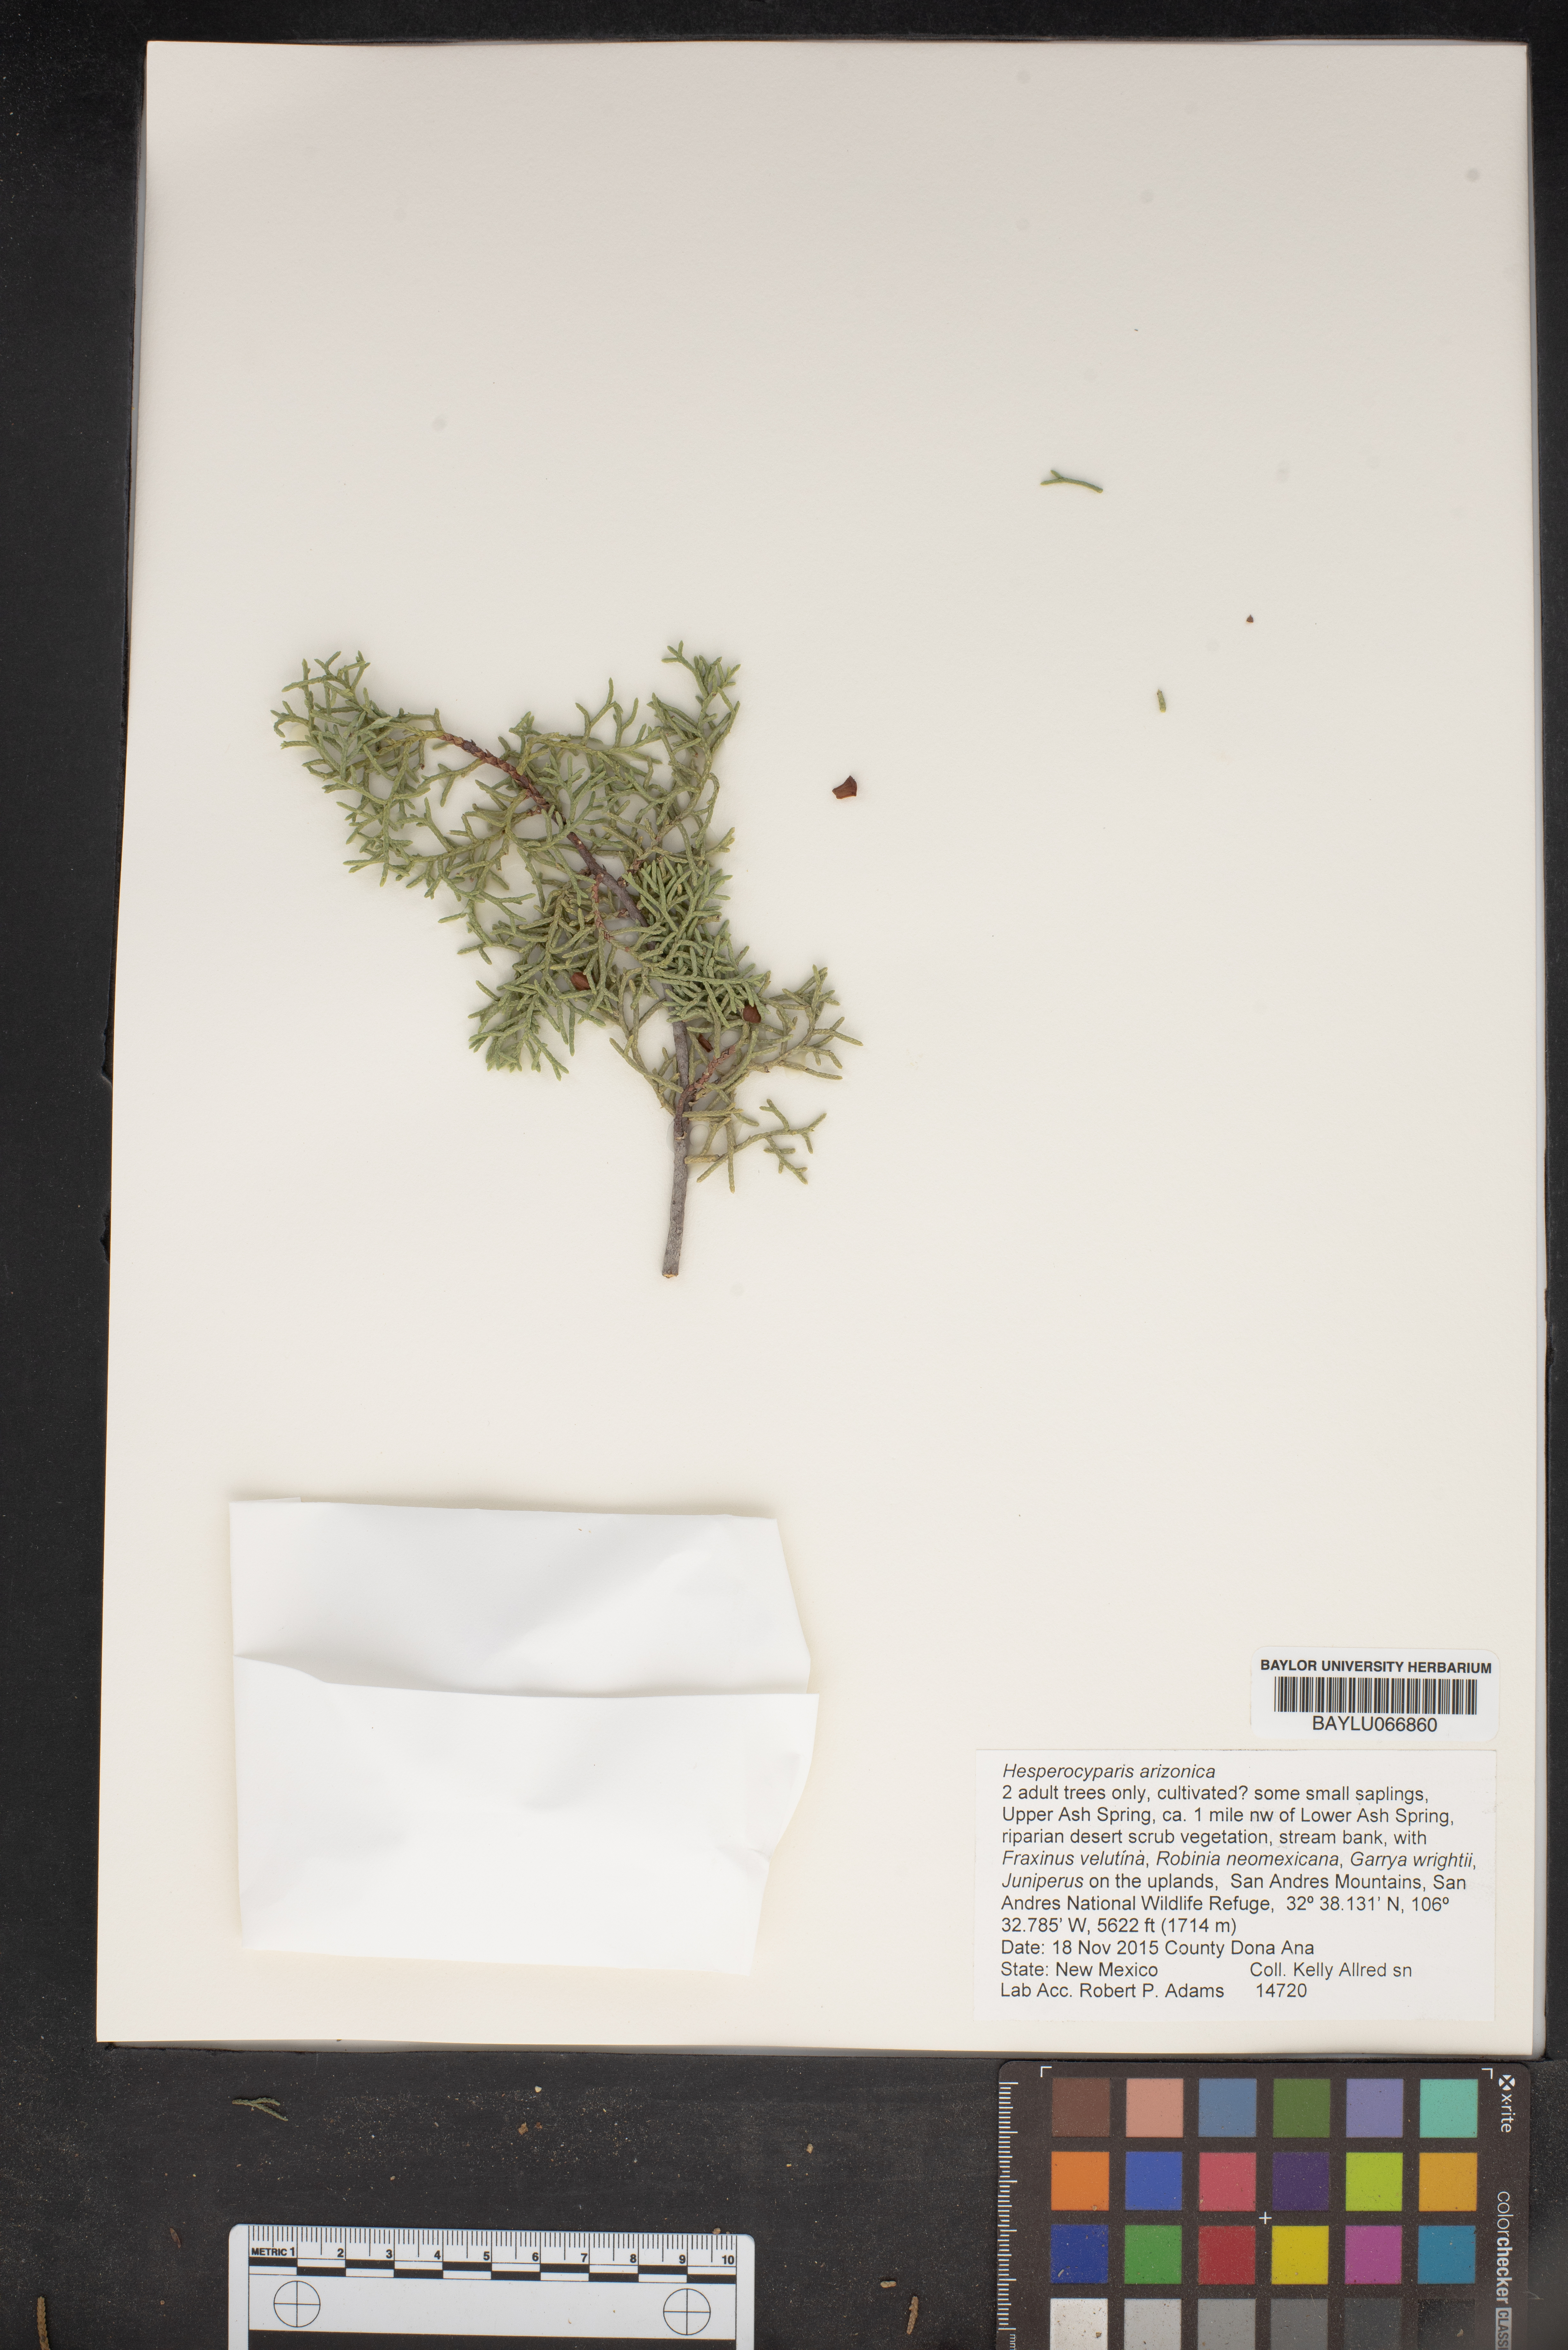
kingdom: Plantae
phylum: Tracheophyta
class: Pinopsida
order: Pinales
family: Cupressaceae
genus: Cupressus
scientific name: Cupressus arizonica
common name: Arizona cypress
